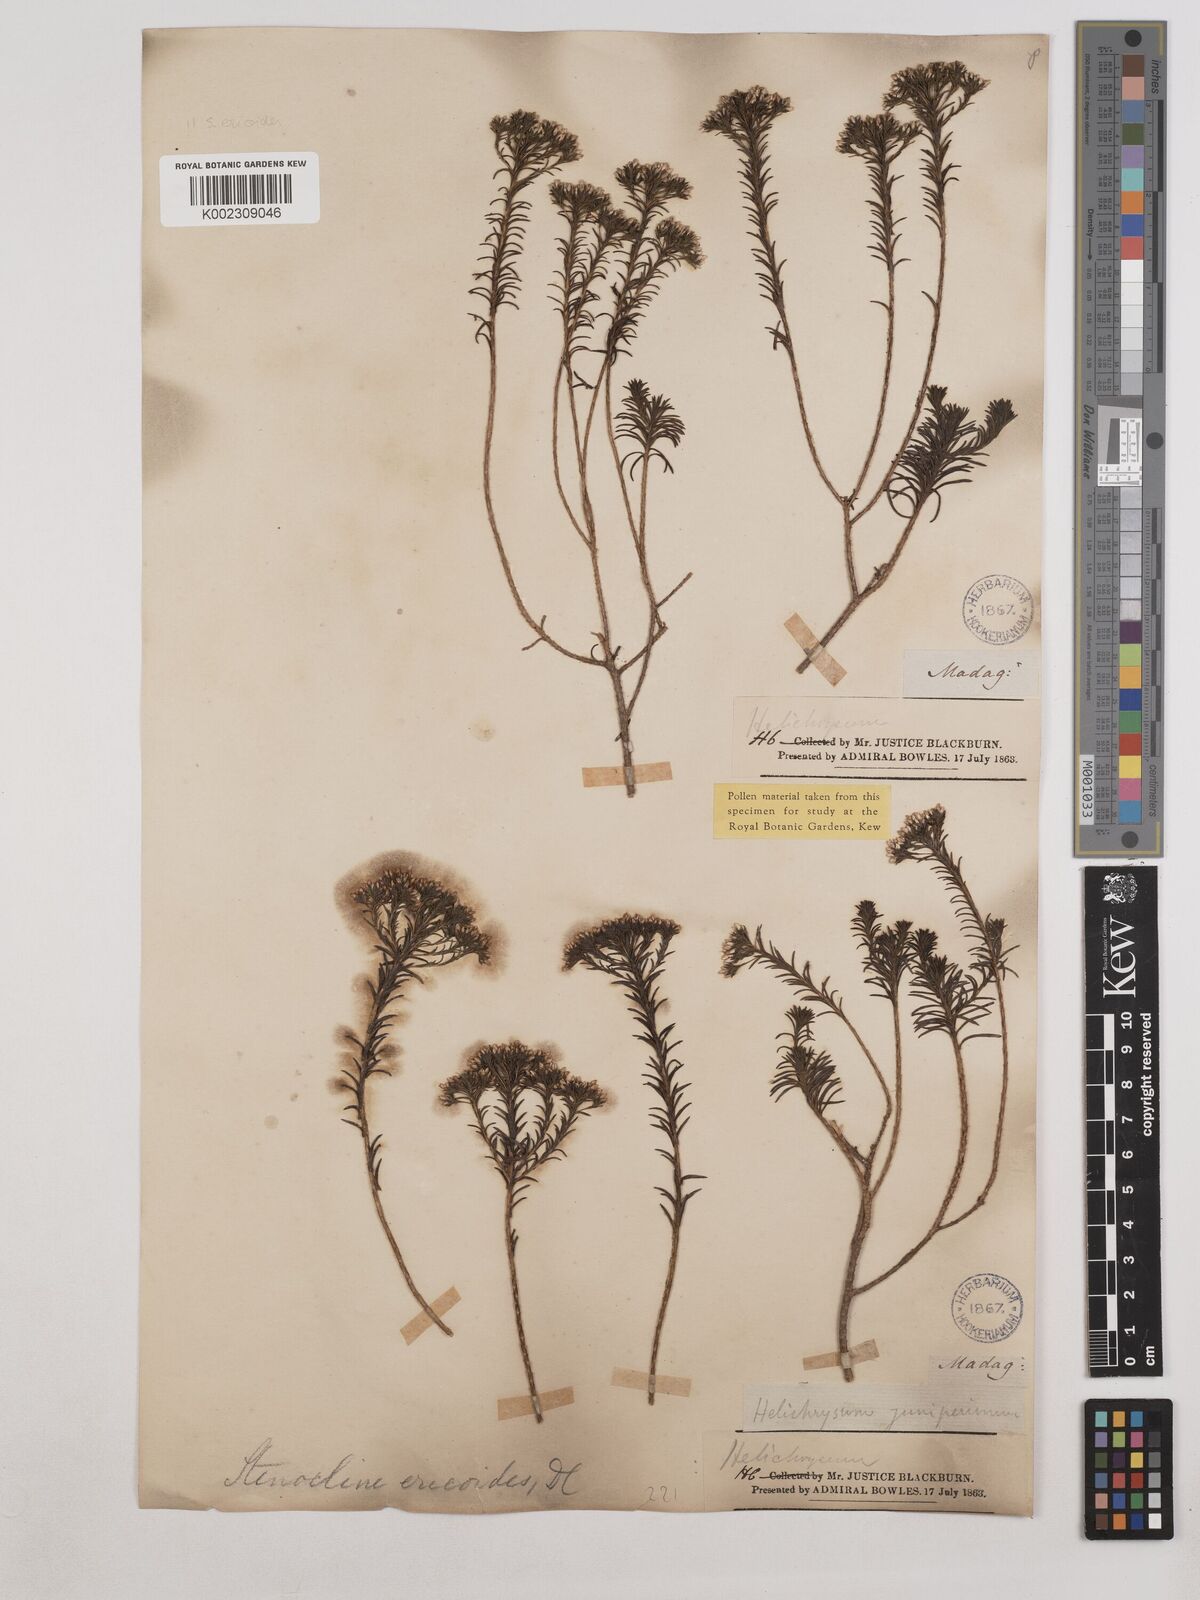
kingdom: Plantae
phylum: Tracheophyta
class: Magnoliopsida
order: Asterales
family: Asteraceae
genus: Stenocline
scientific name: Stenocline ericoides
